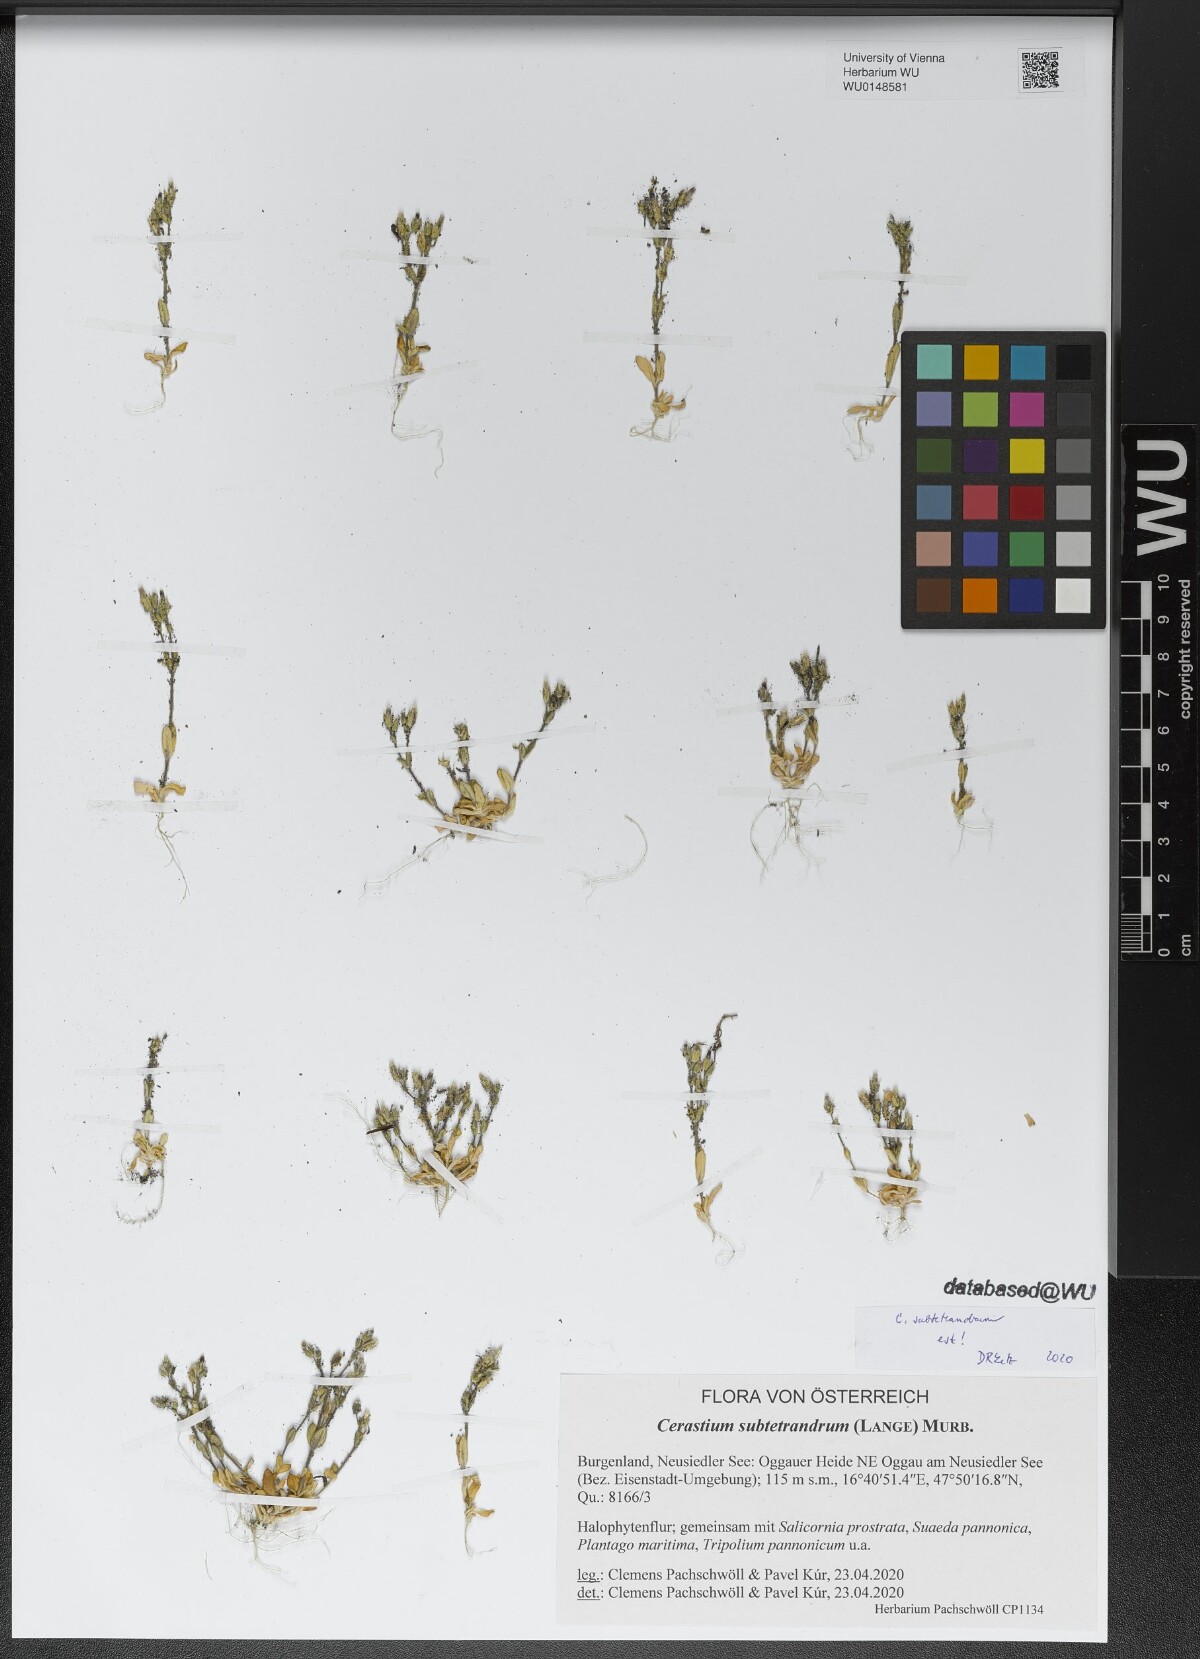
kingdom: Plantae
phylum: Tracheophyta
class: Magnoliopsida
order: Caryophyllales
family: Caryophyllaceae
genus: Cerastium
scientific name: Cerastium subtetrandrum
